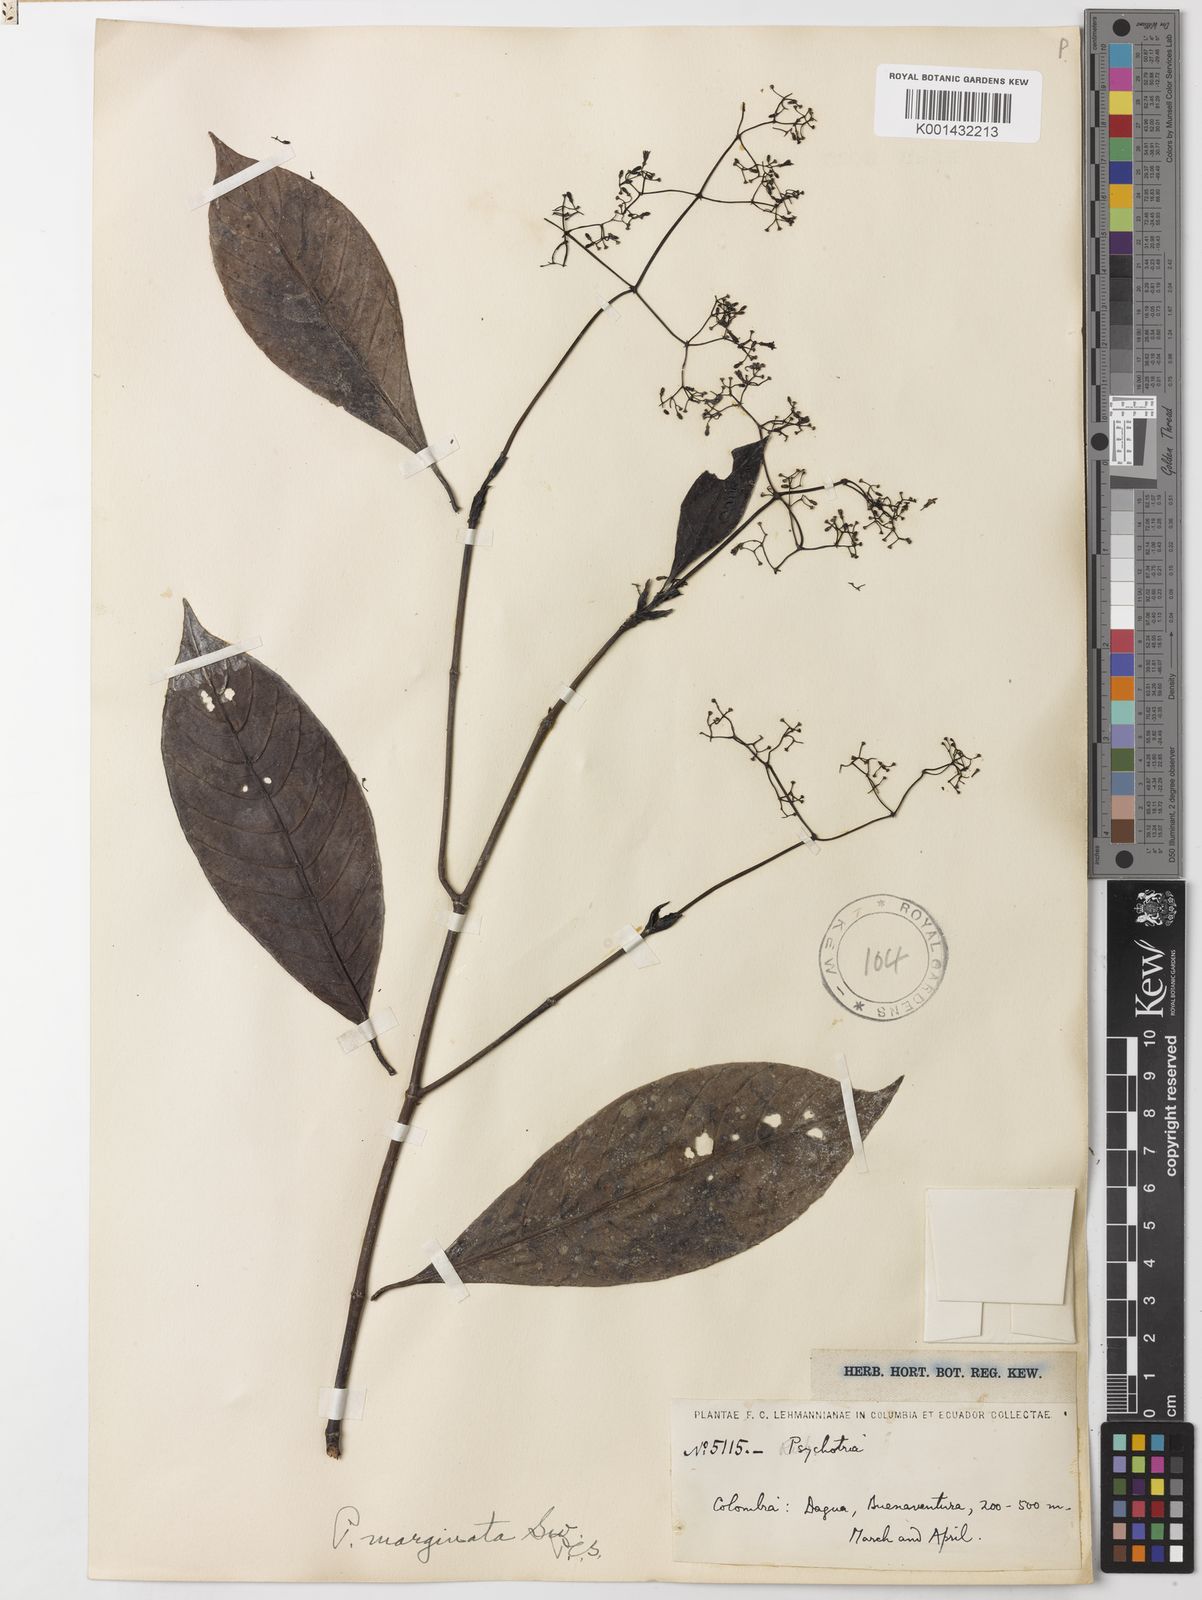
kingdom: Plantae
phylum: Tracheophyta
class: Magnoliopsida
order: Gentianales
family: Rubiaceae
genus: Psychotria
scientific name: Psychotria marginata
